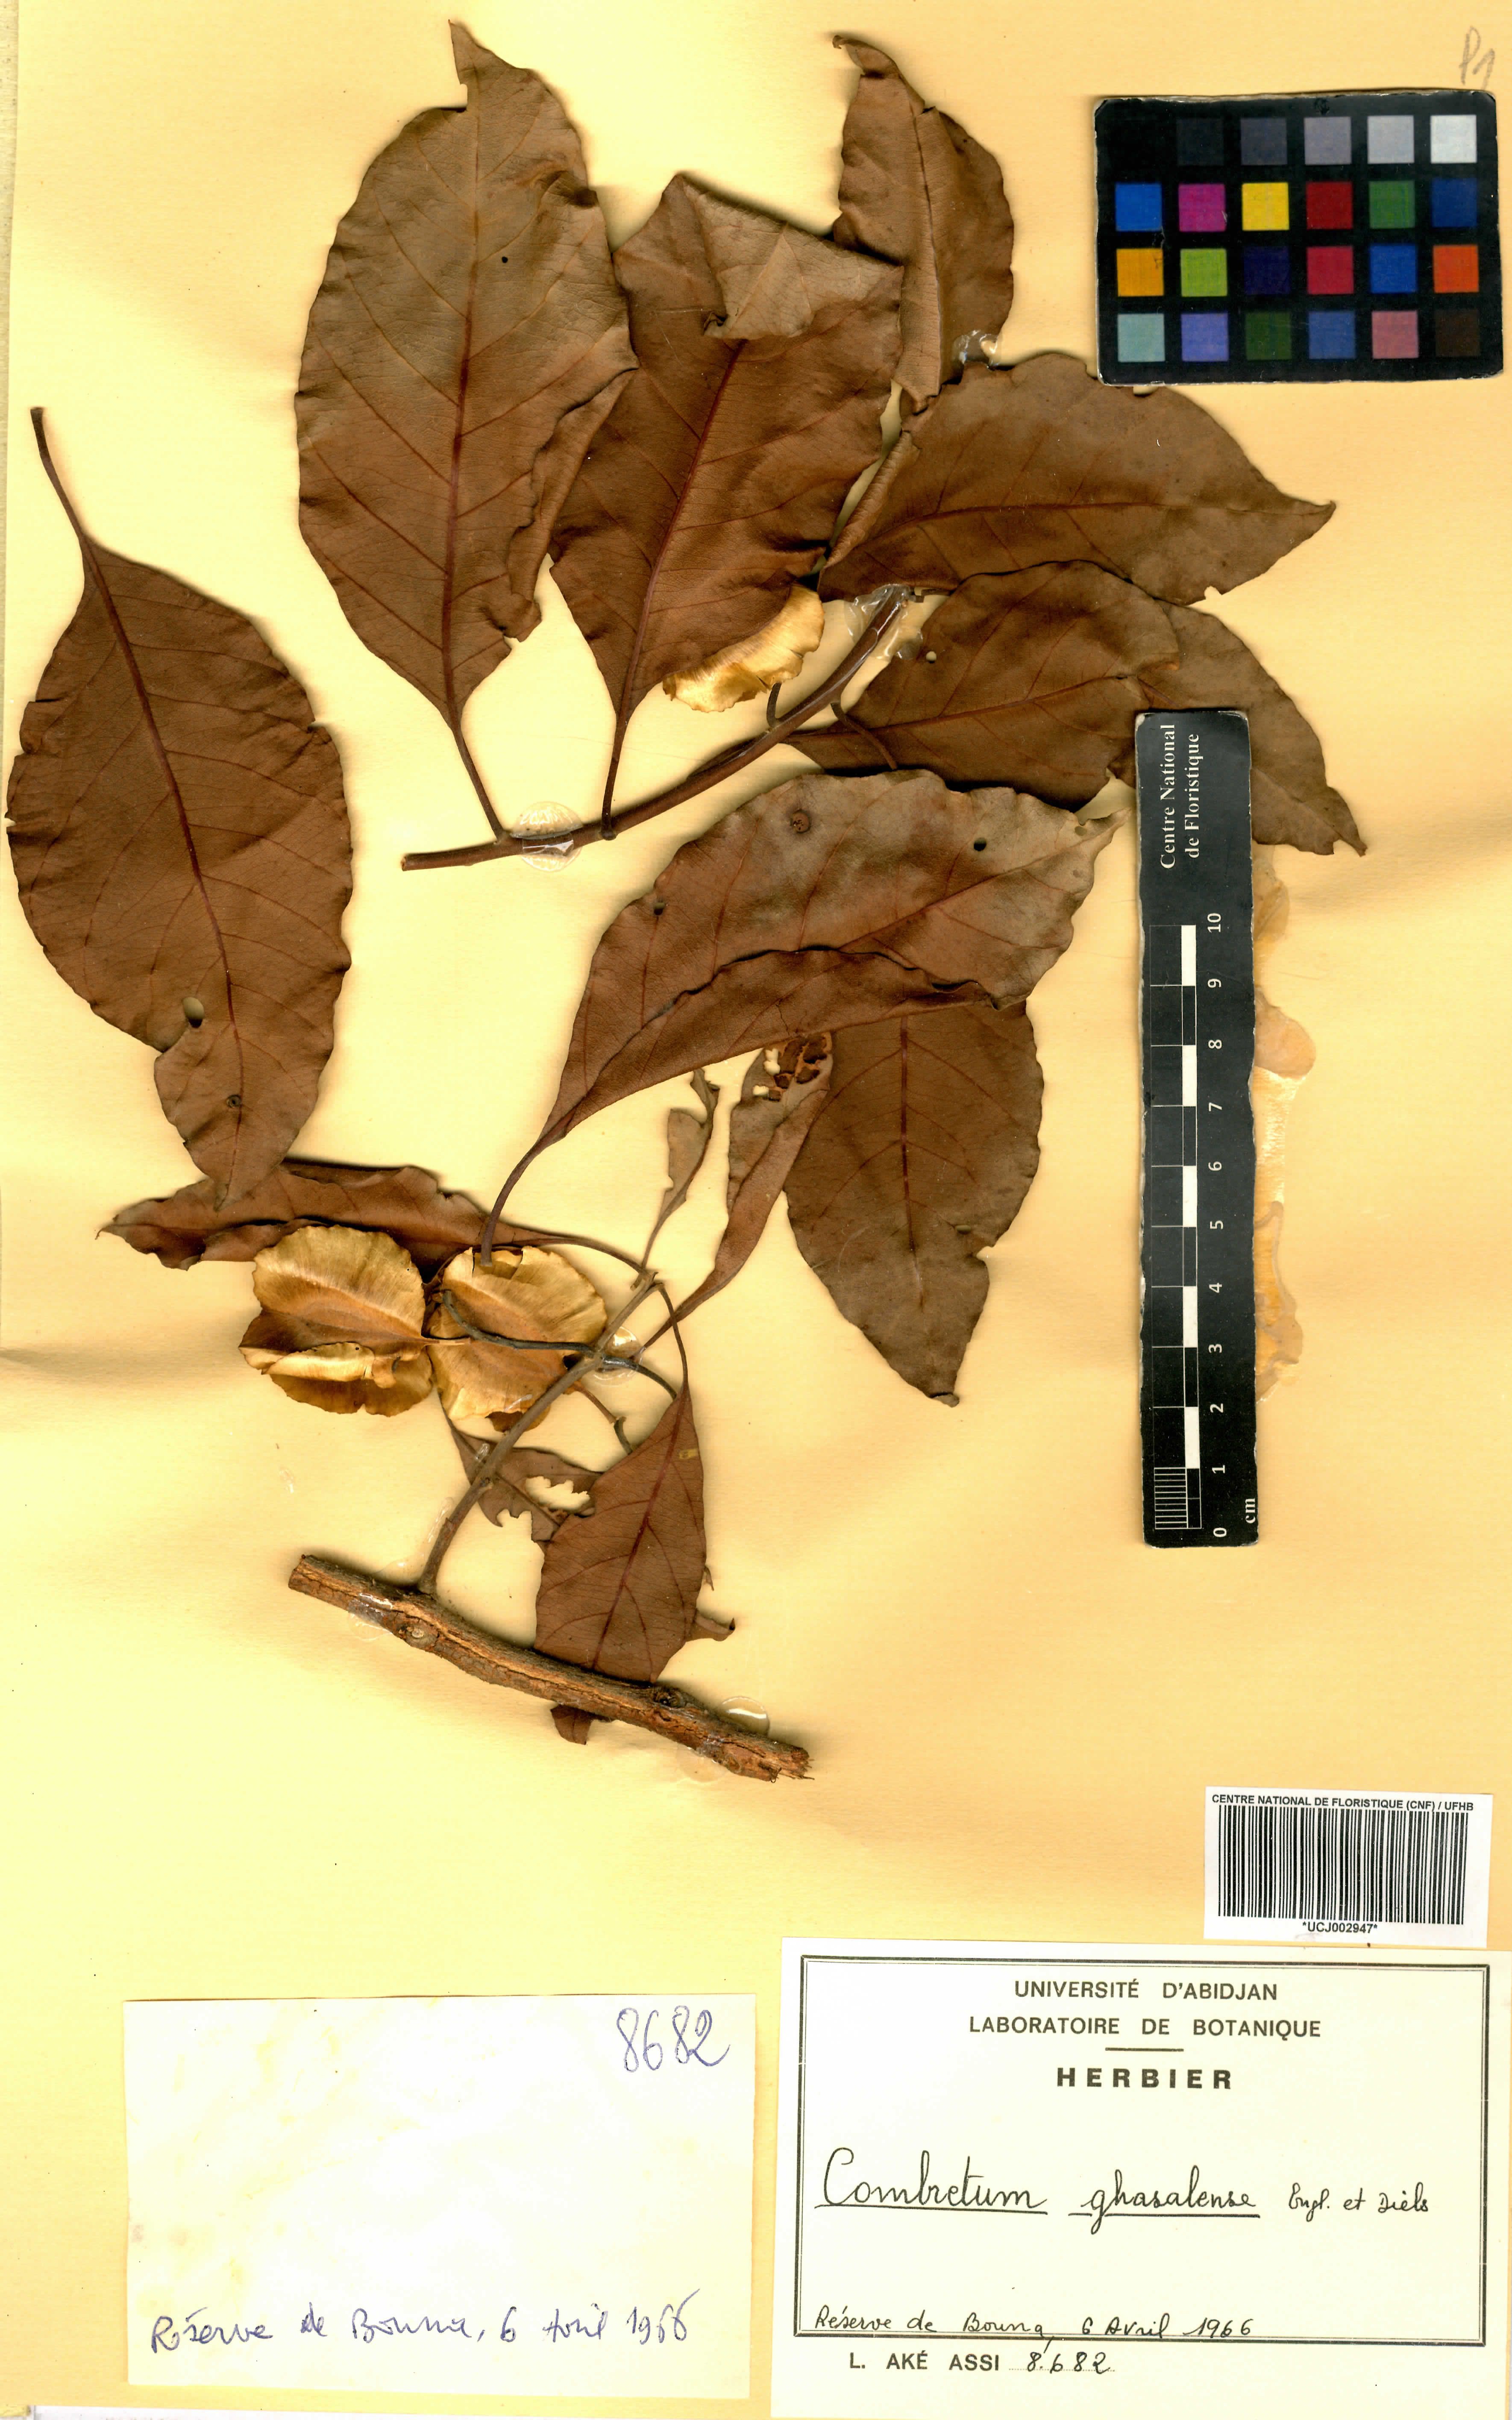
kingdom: Plantae
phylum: Tracheophyta
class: Magnoliopsida
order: Myrtales
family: Combretaceae
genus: Combretum
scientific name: Combretum adenogonium
